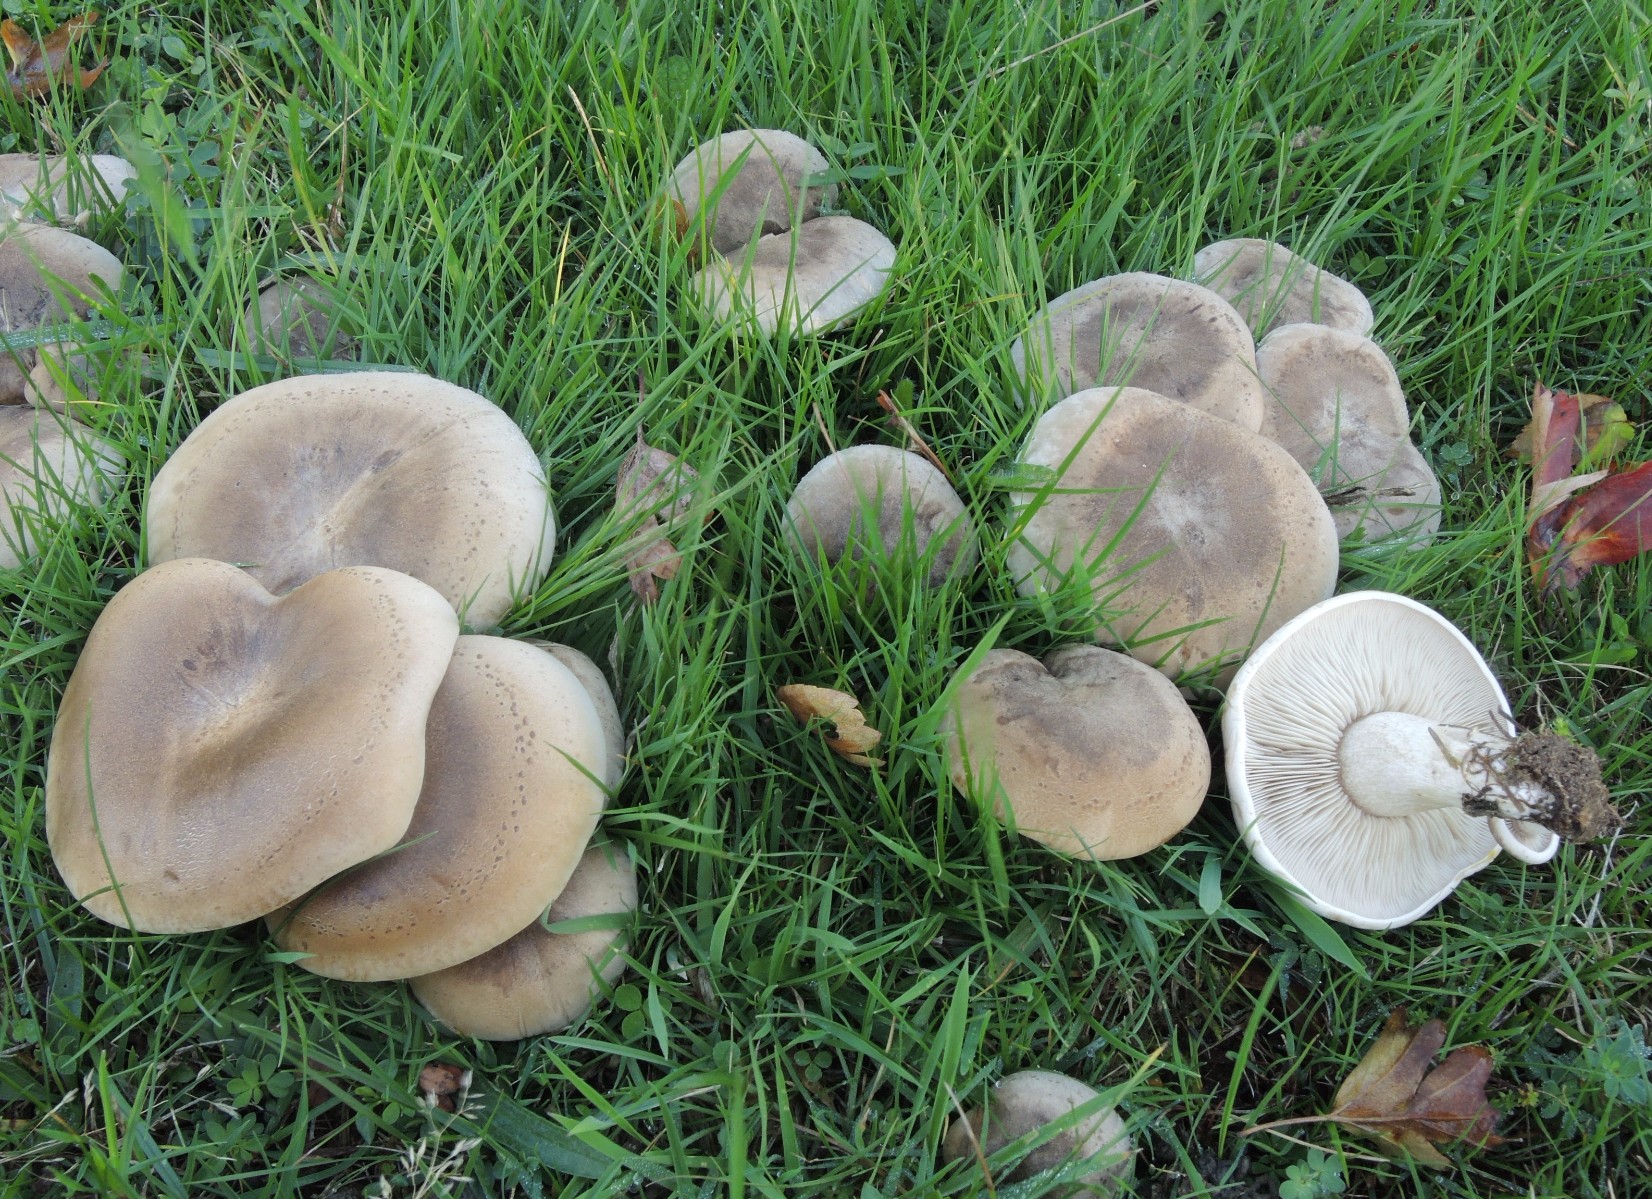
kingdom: Fungi
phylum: Basidiomycota
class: Agaricomycetes
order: Agaricales
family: Tricholomataceae
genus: Lepista
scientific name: Lepista panaeolus
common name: marmoreret hekseringshat
